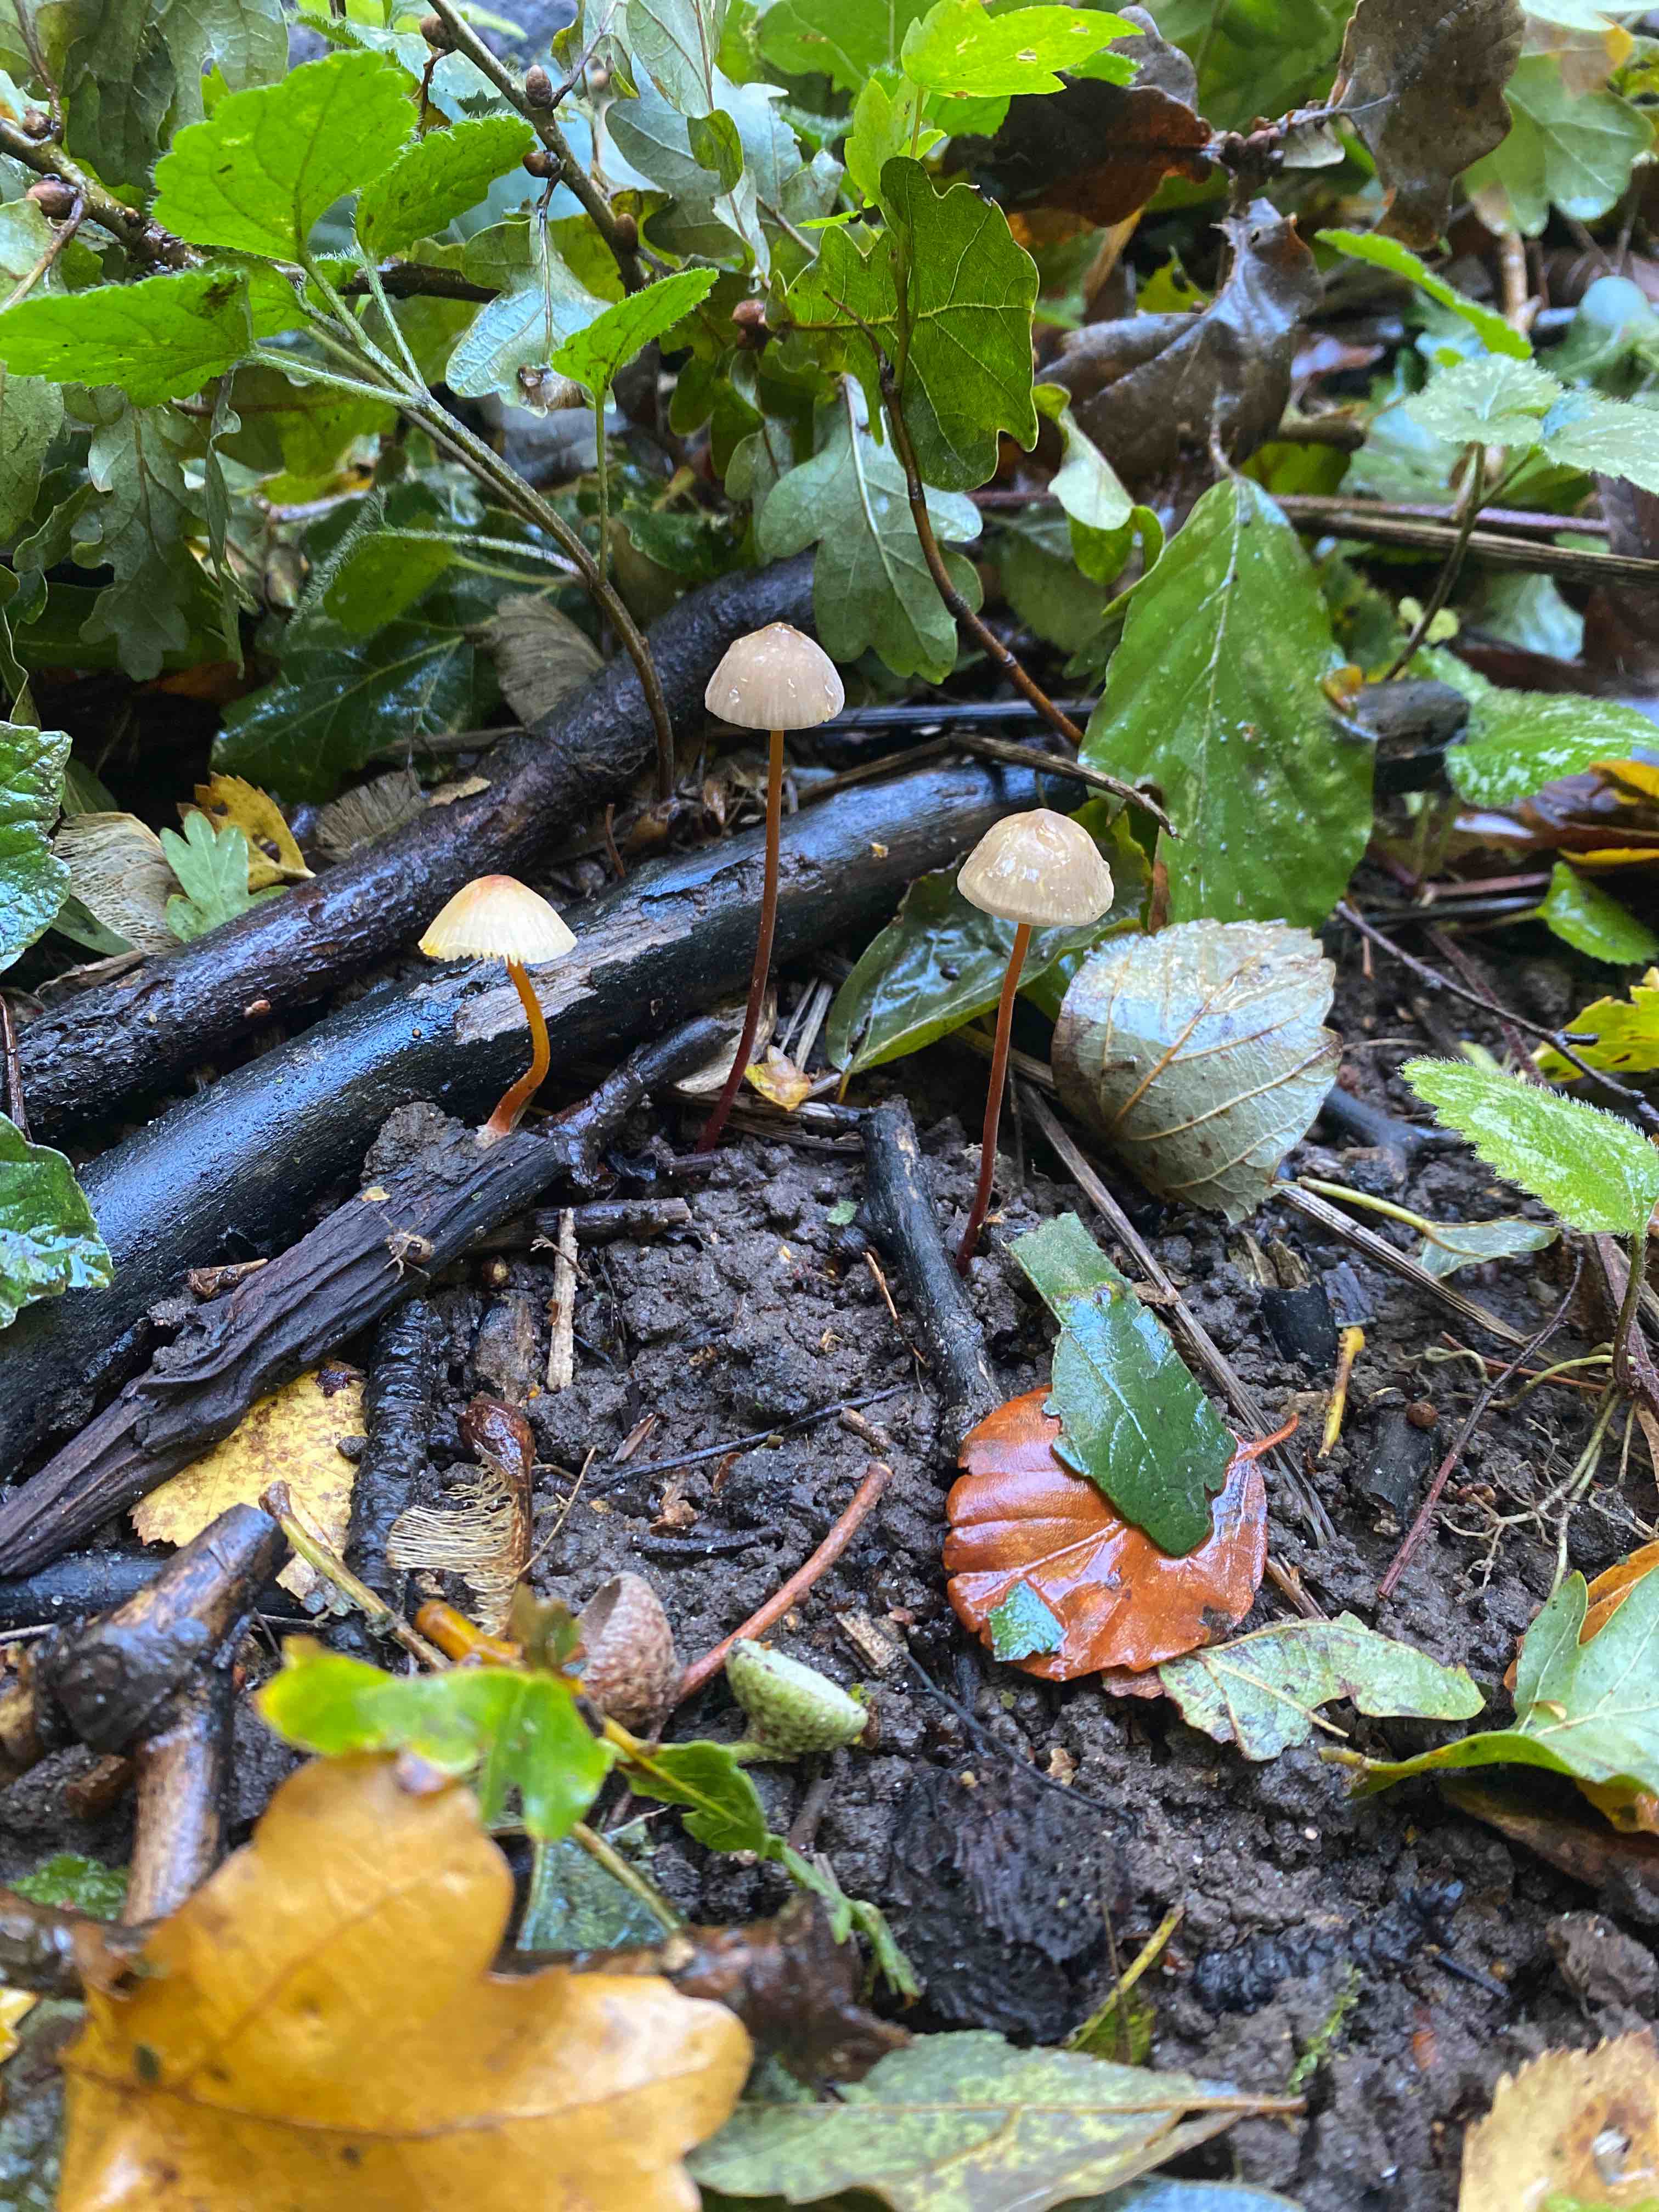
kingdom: Fungi
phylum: Basidiomycota
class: Agaricomycetes
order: Agaricales
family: Mycenaceae
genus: Mycena
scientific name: Mycena crocata
